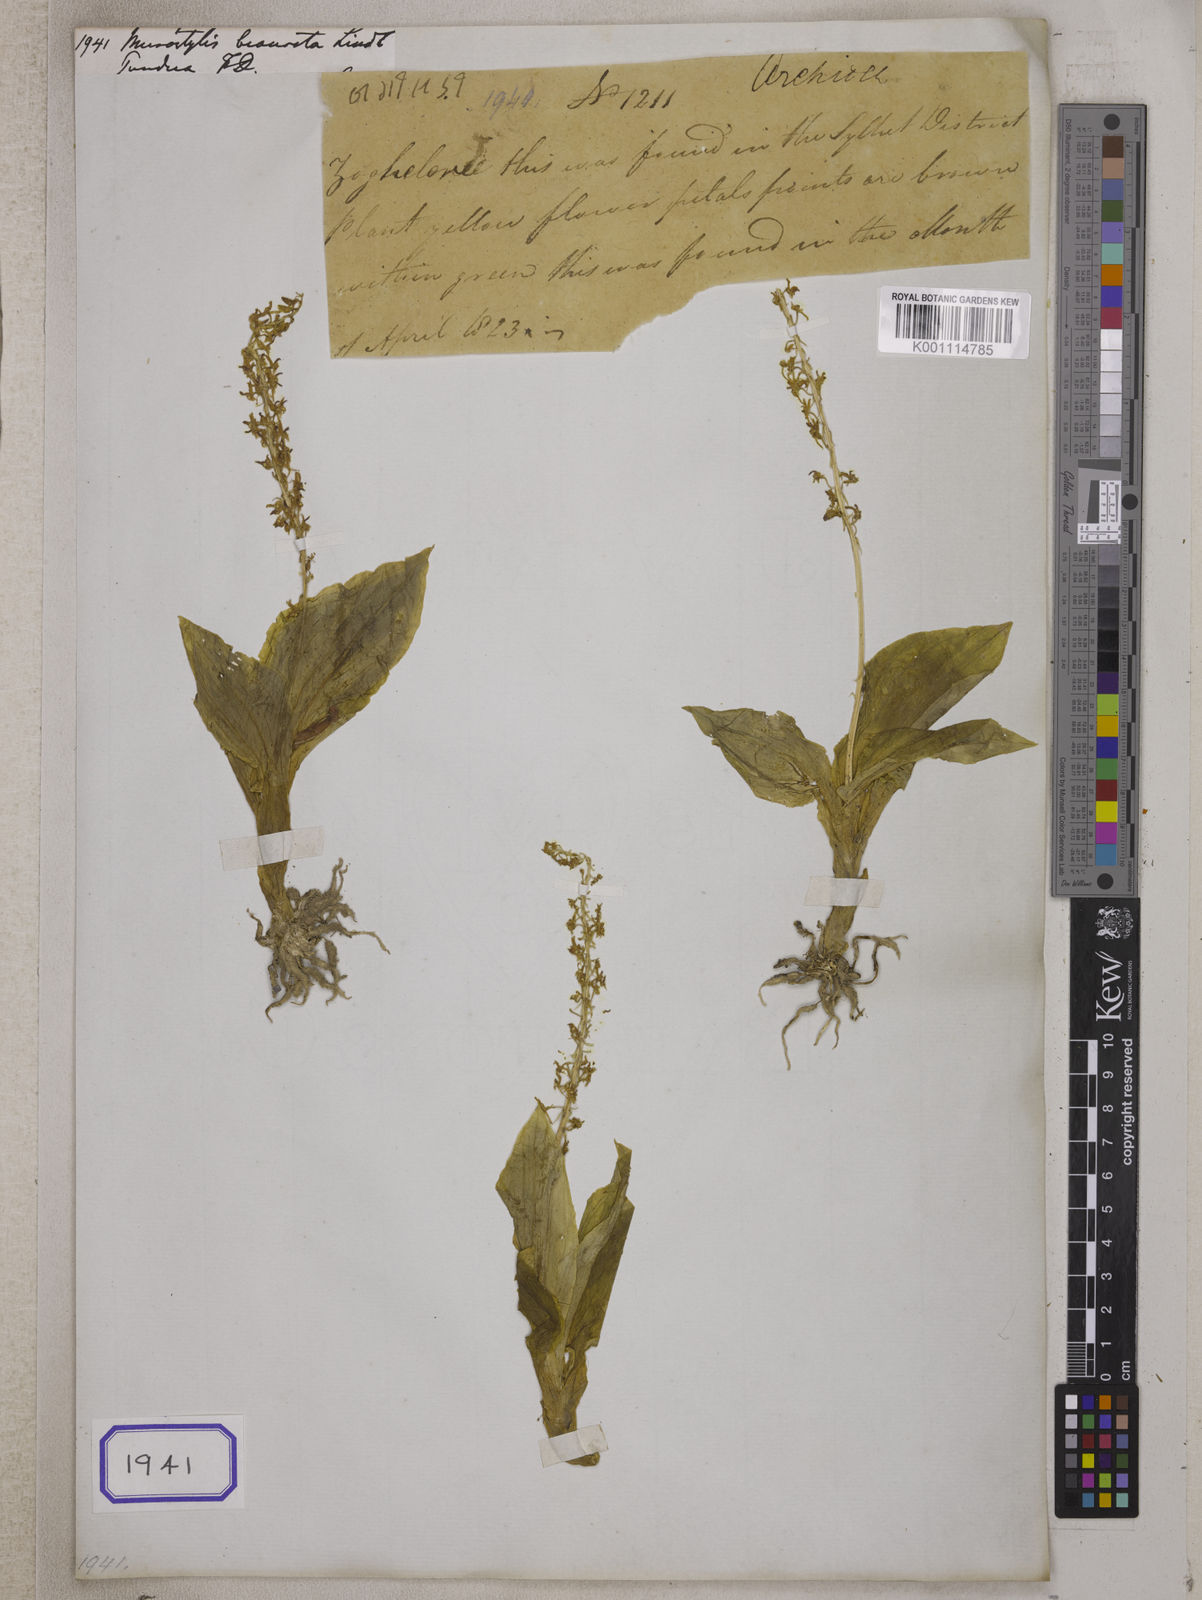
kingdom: Plantae
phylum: Tracheophyta
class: Liliopsida
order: Asparagales
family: Orchidaceae
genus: Crepidium
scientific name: Crepidium biauritum
